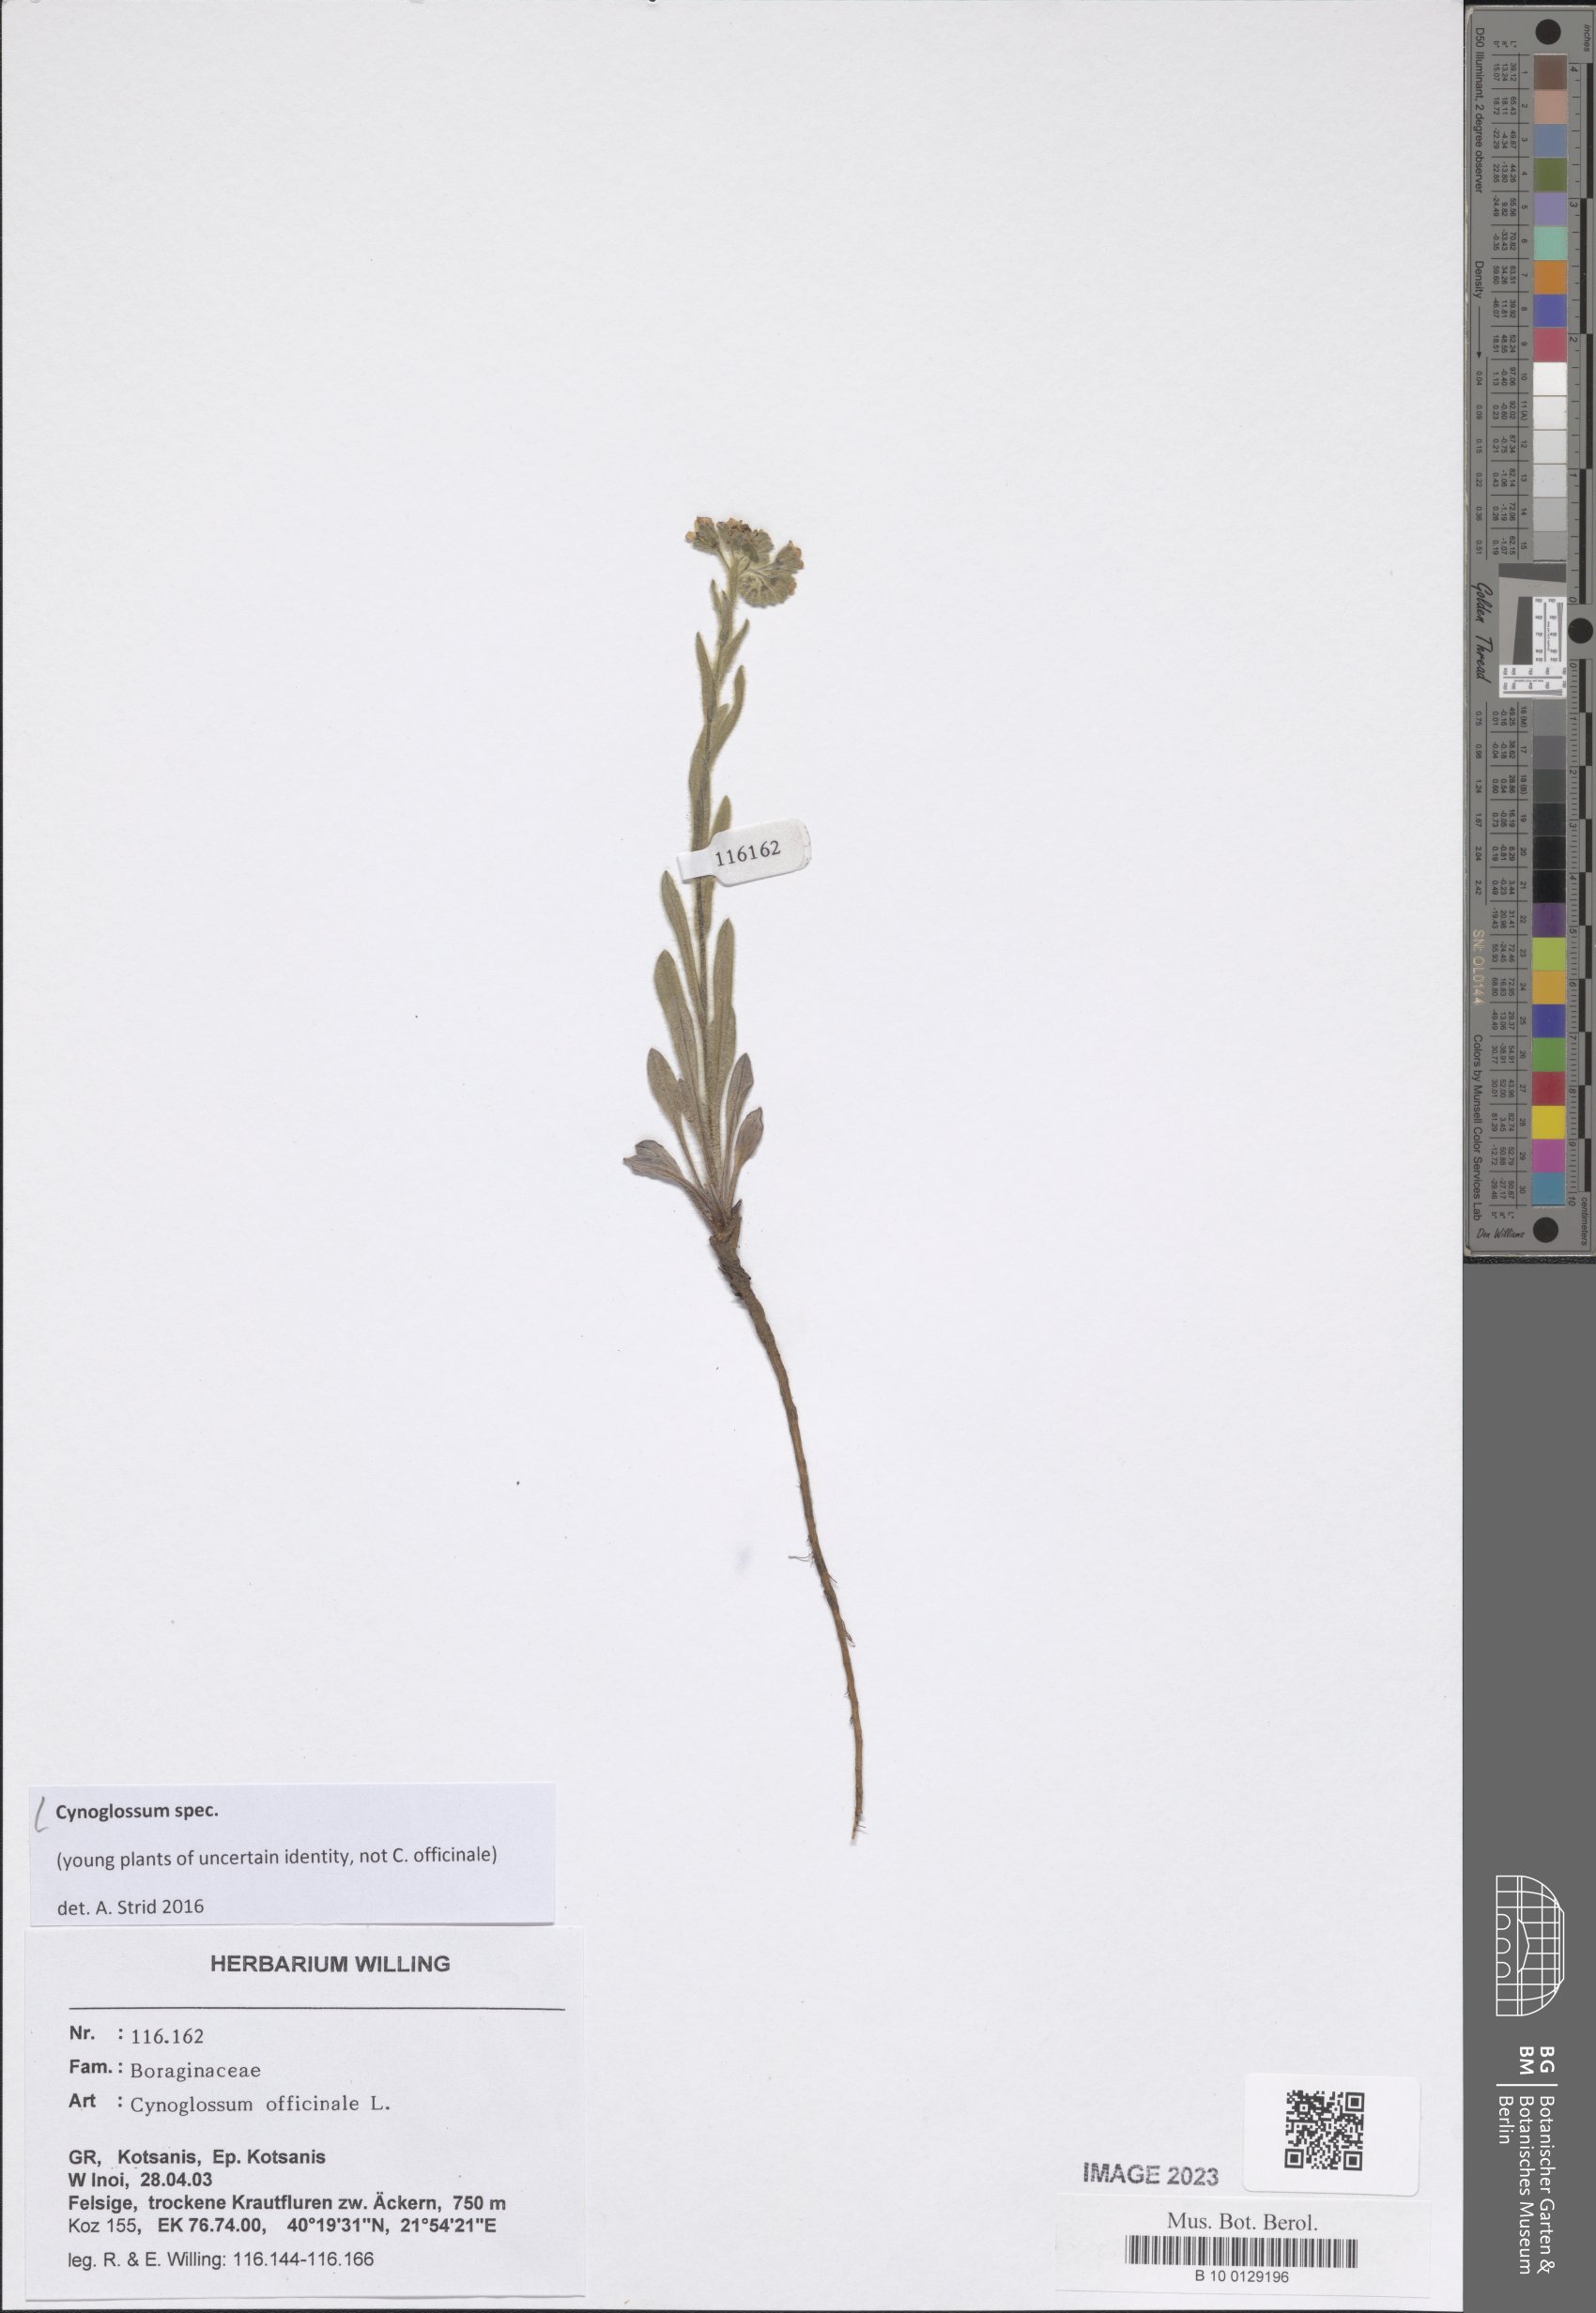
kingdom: Plantae
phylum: Tracheophyta
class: Magnoliopsida
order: Boraginales
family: Boraginaceae
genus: Cynoglossum
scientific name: Cynoglossum
